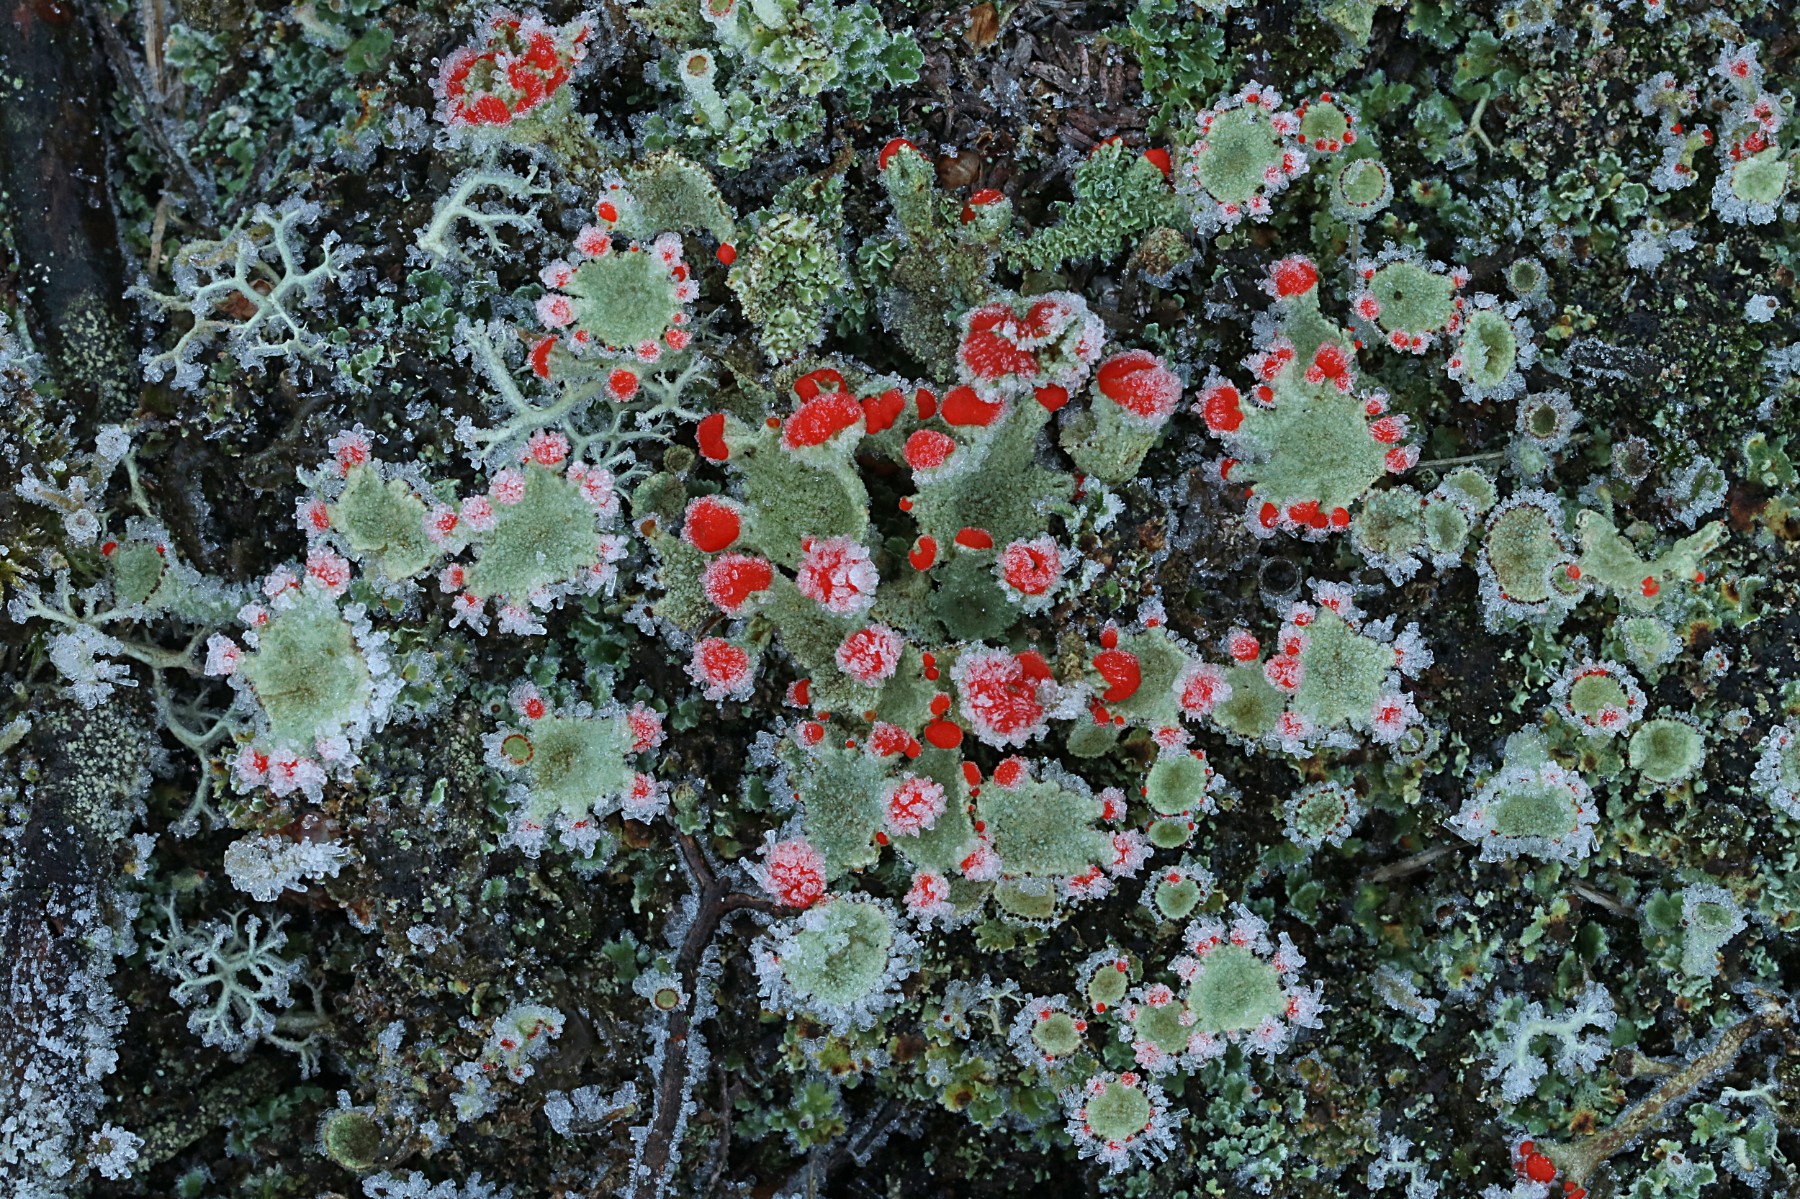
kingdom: Fungi
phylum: Ascomycota
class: Lecanoromycetes
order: Lecanorales
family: Cladoniaceae
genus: Cladonia
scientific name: Cladonia diversa
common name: rød bægerlav
